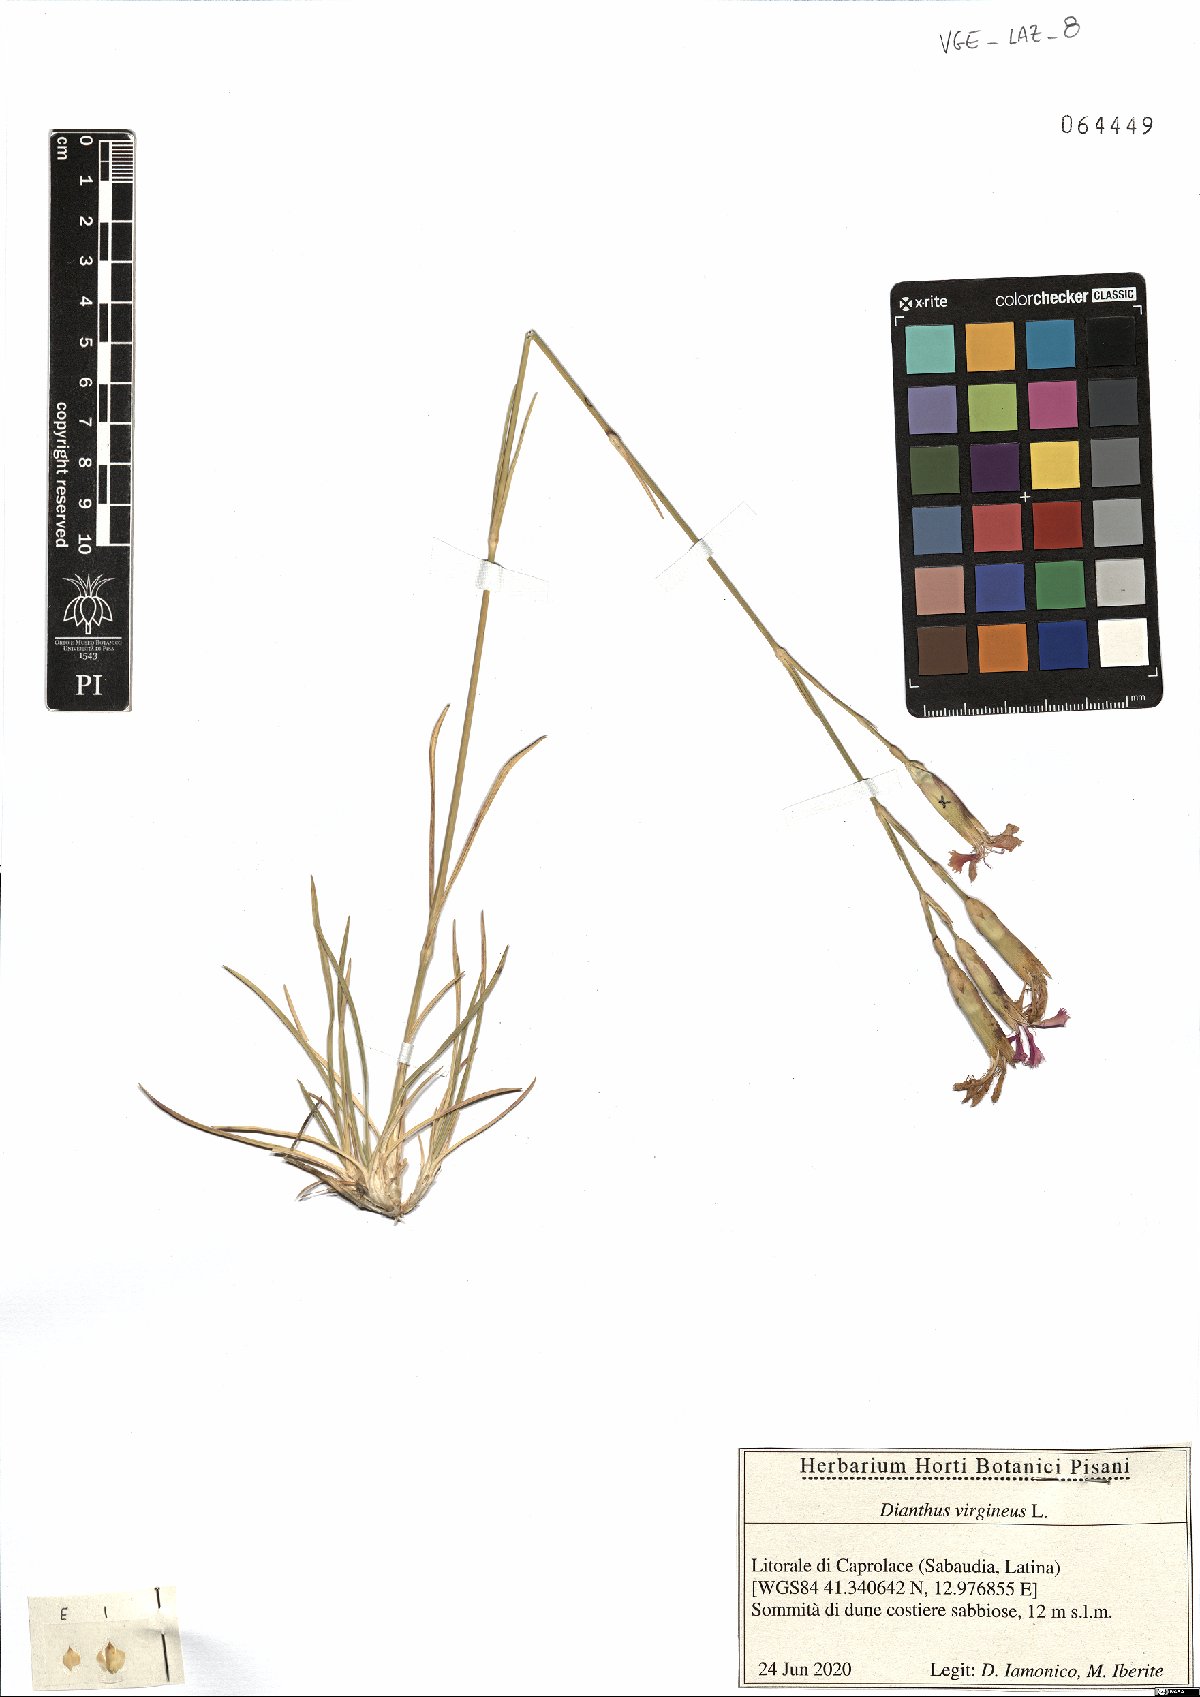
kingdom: Plantae
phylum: Tracheophyta
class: Magnoliopsida
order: Caryophyllales
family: Caryophyllaceae
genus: Dianthus
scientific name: Dianthus virgineus
